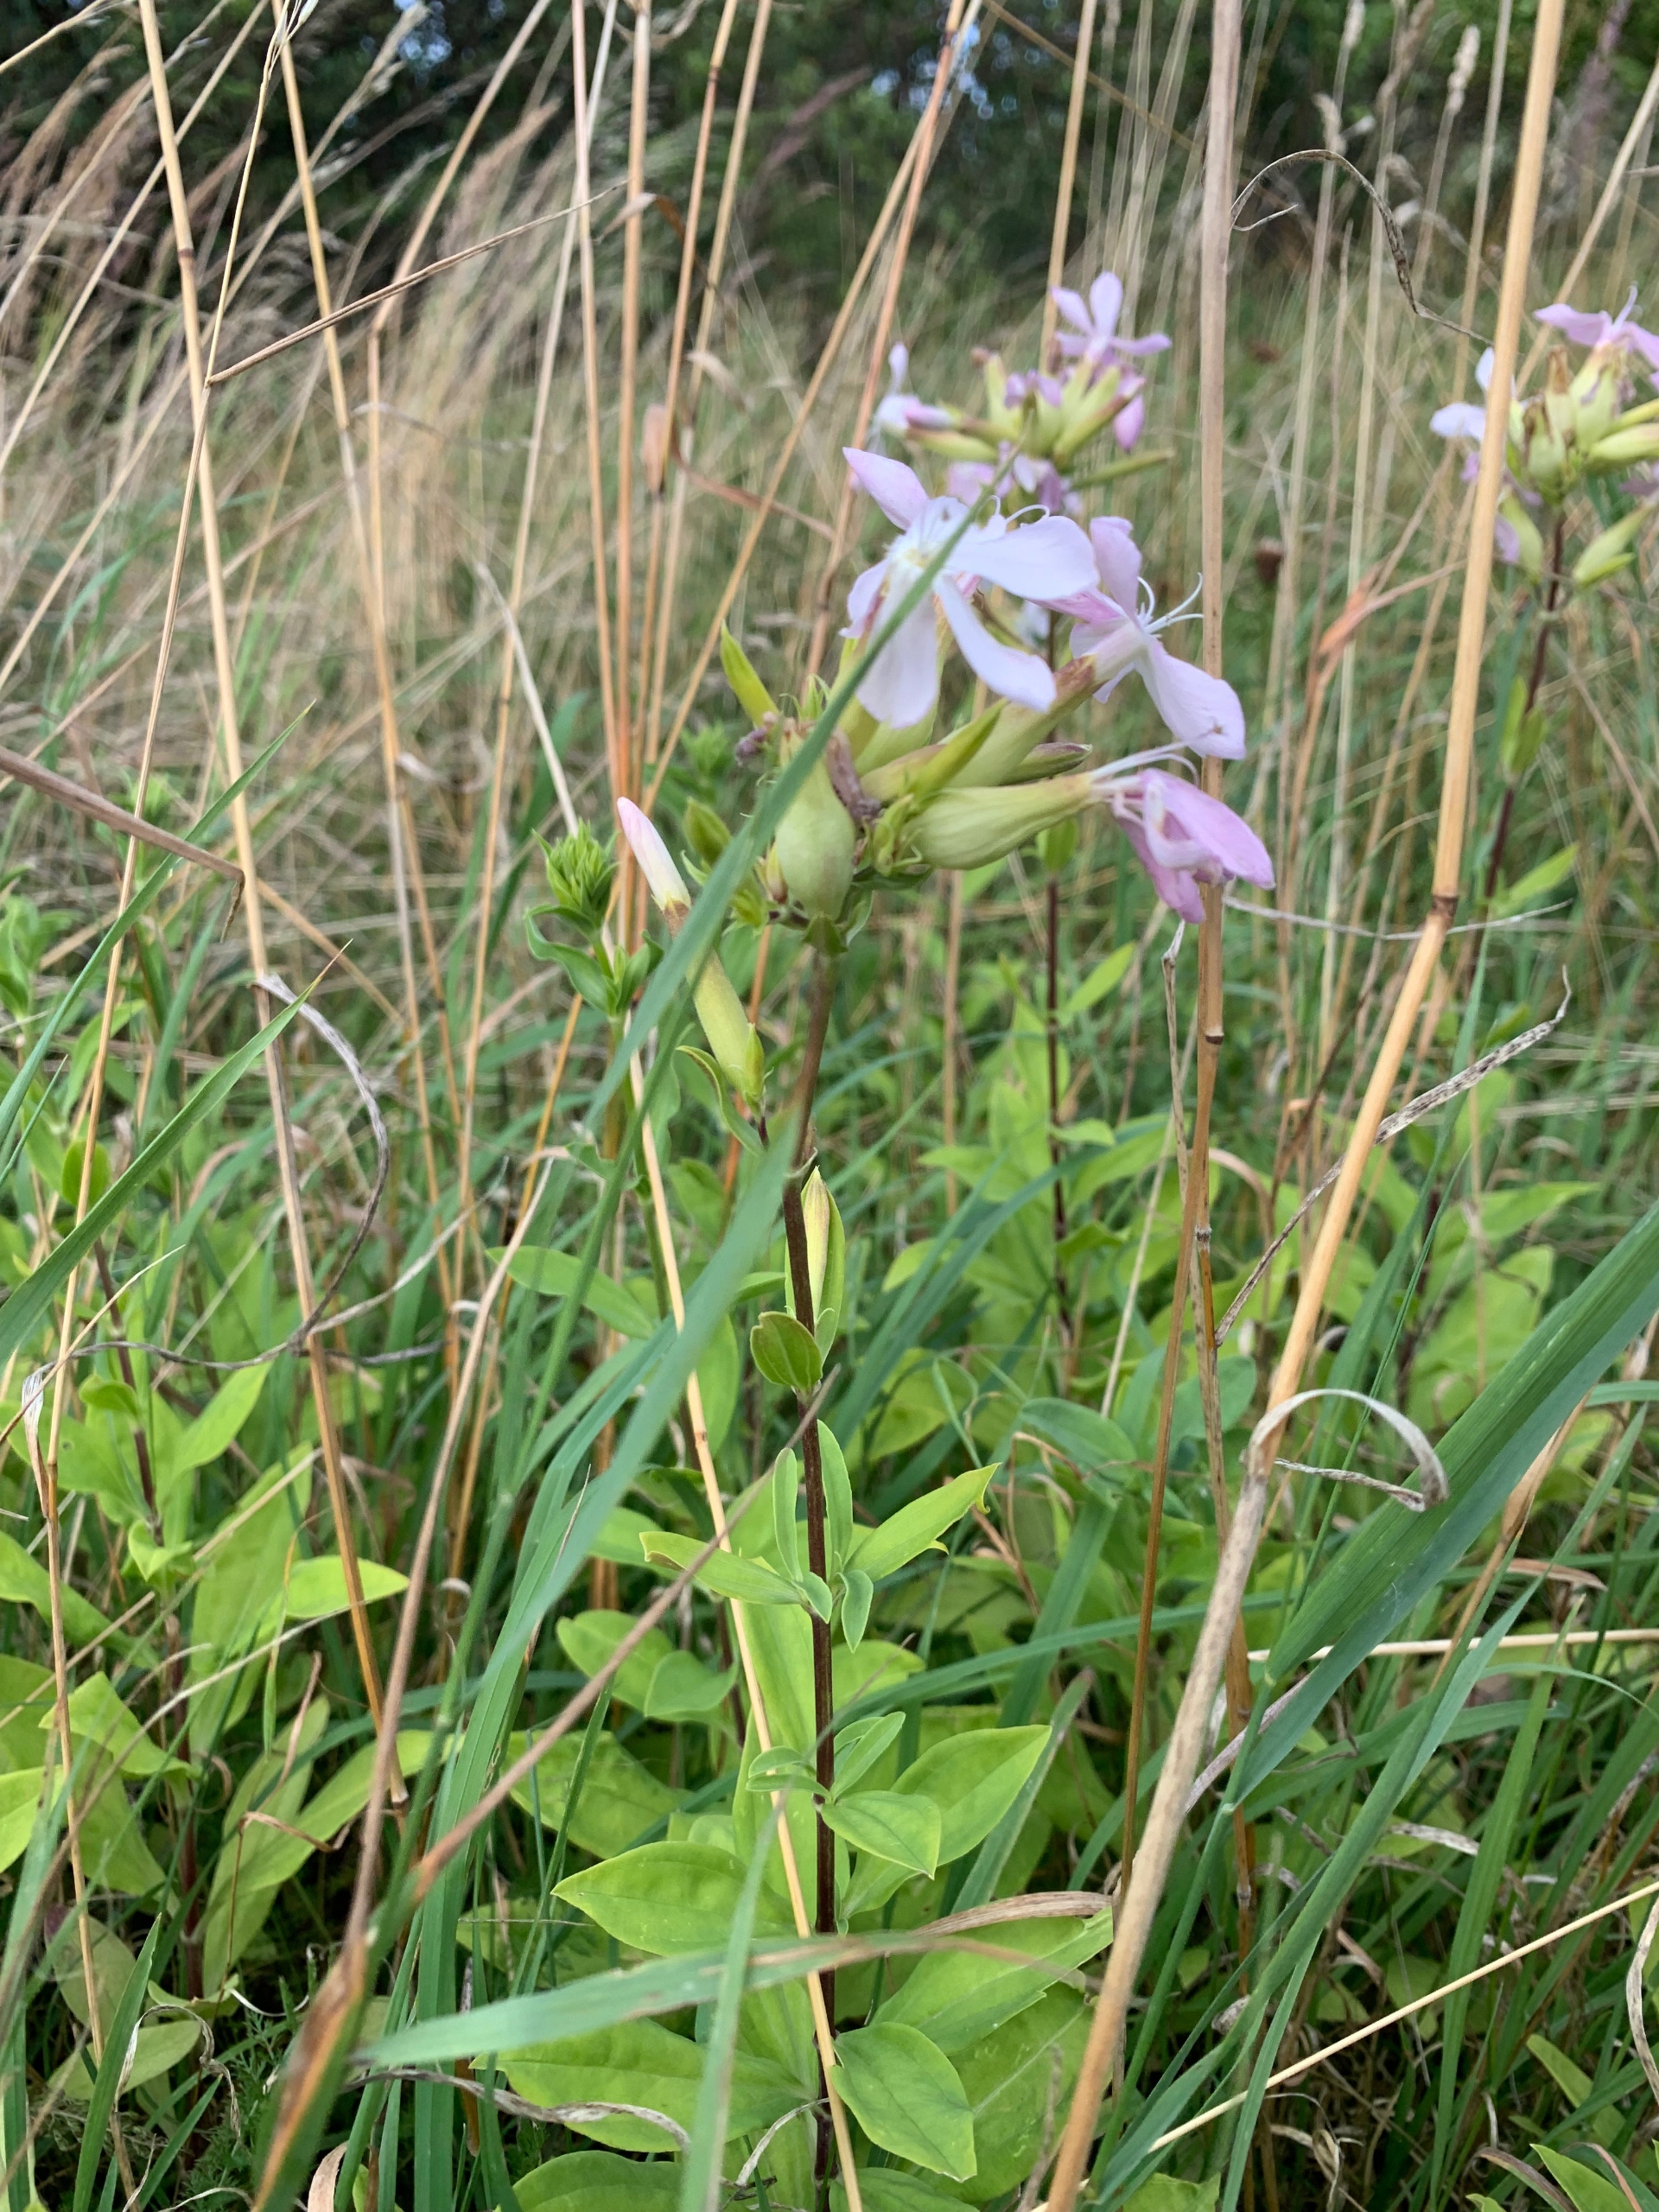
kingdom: Plantae
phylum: Tracheophyta
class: Magnoliopsida
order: Caryophyllales
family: Caryophyllaceae
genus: Saponaria
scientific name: Saponaria officinalis
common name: Sæbeurt
